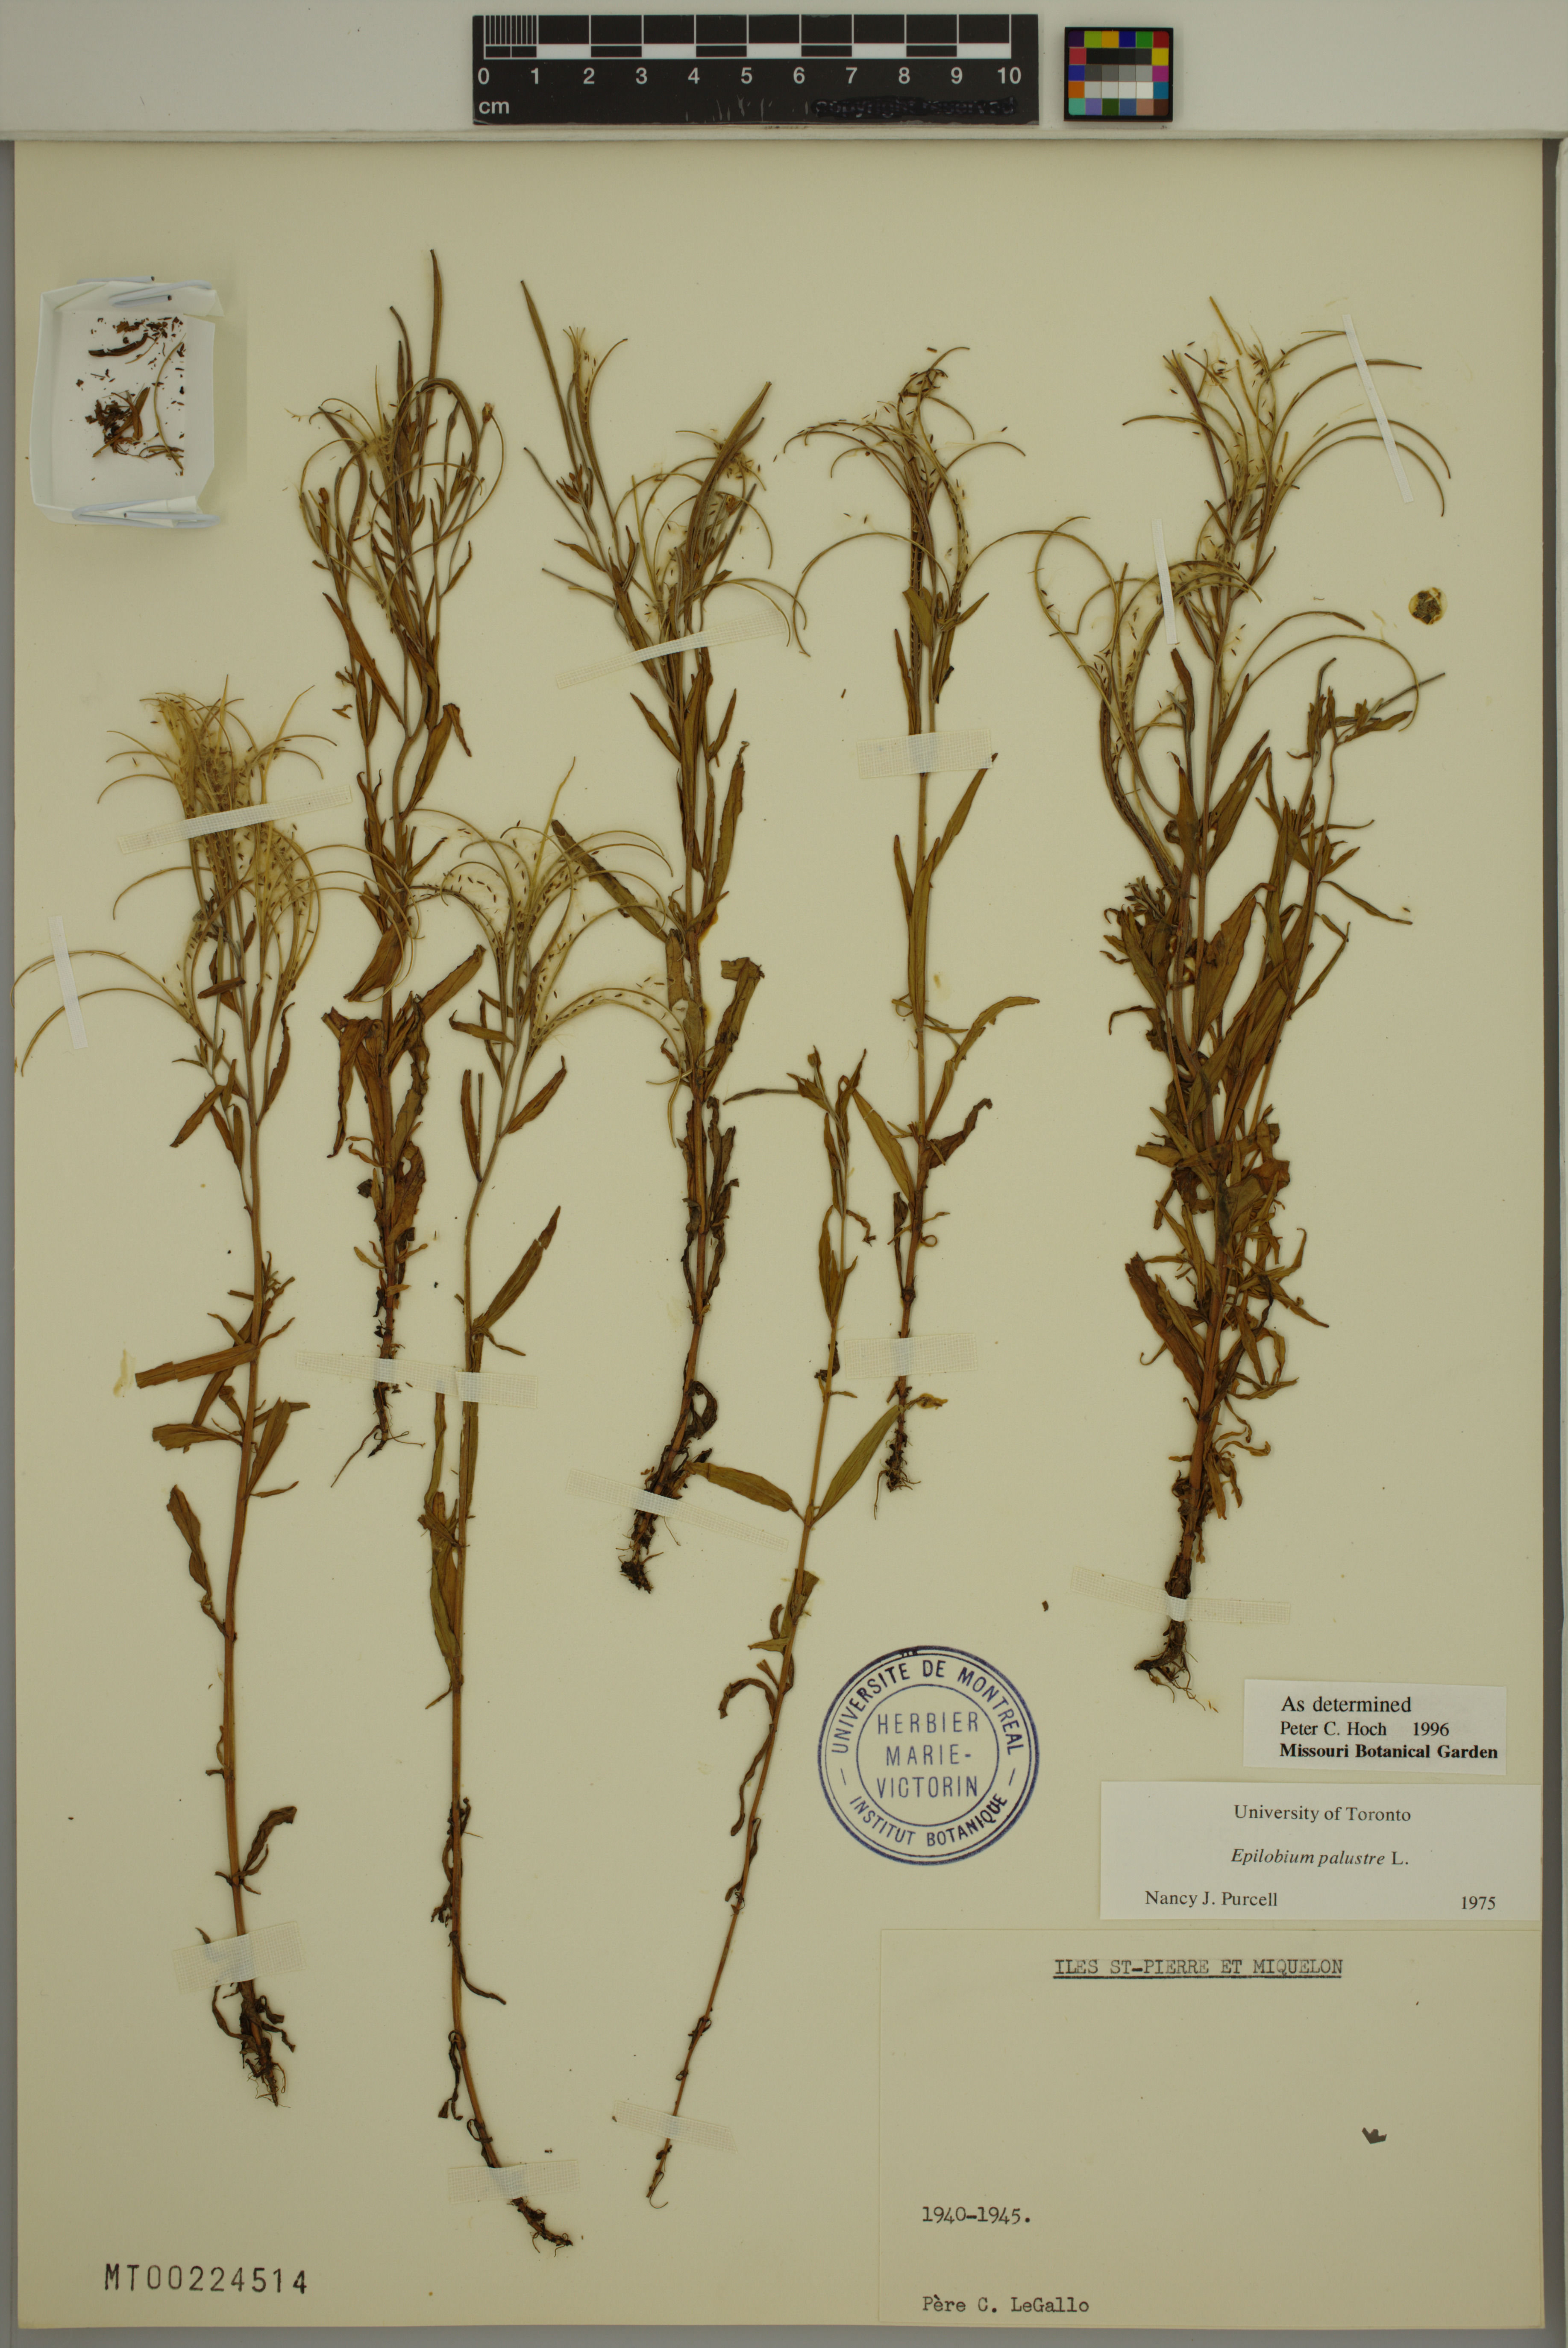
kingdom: Plantae
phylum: Tracheophyta
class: Magnoliopsida
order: Myrtales
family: Onagraceae
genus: Epilobium
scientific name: Epilobium palustre
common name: Marsh willowherb
